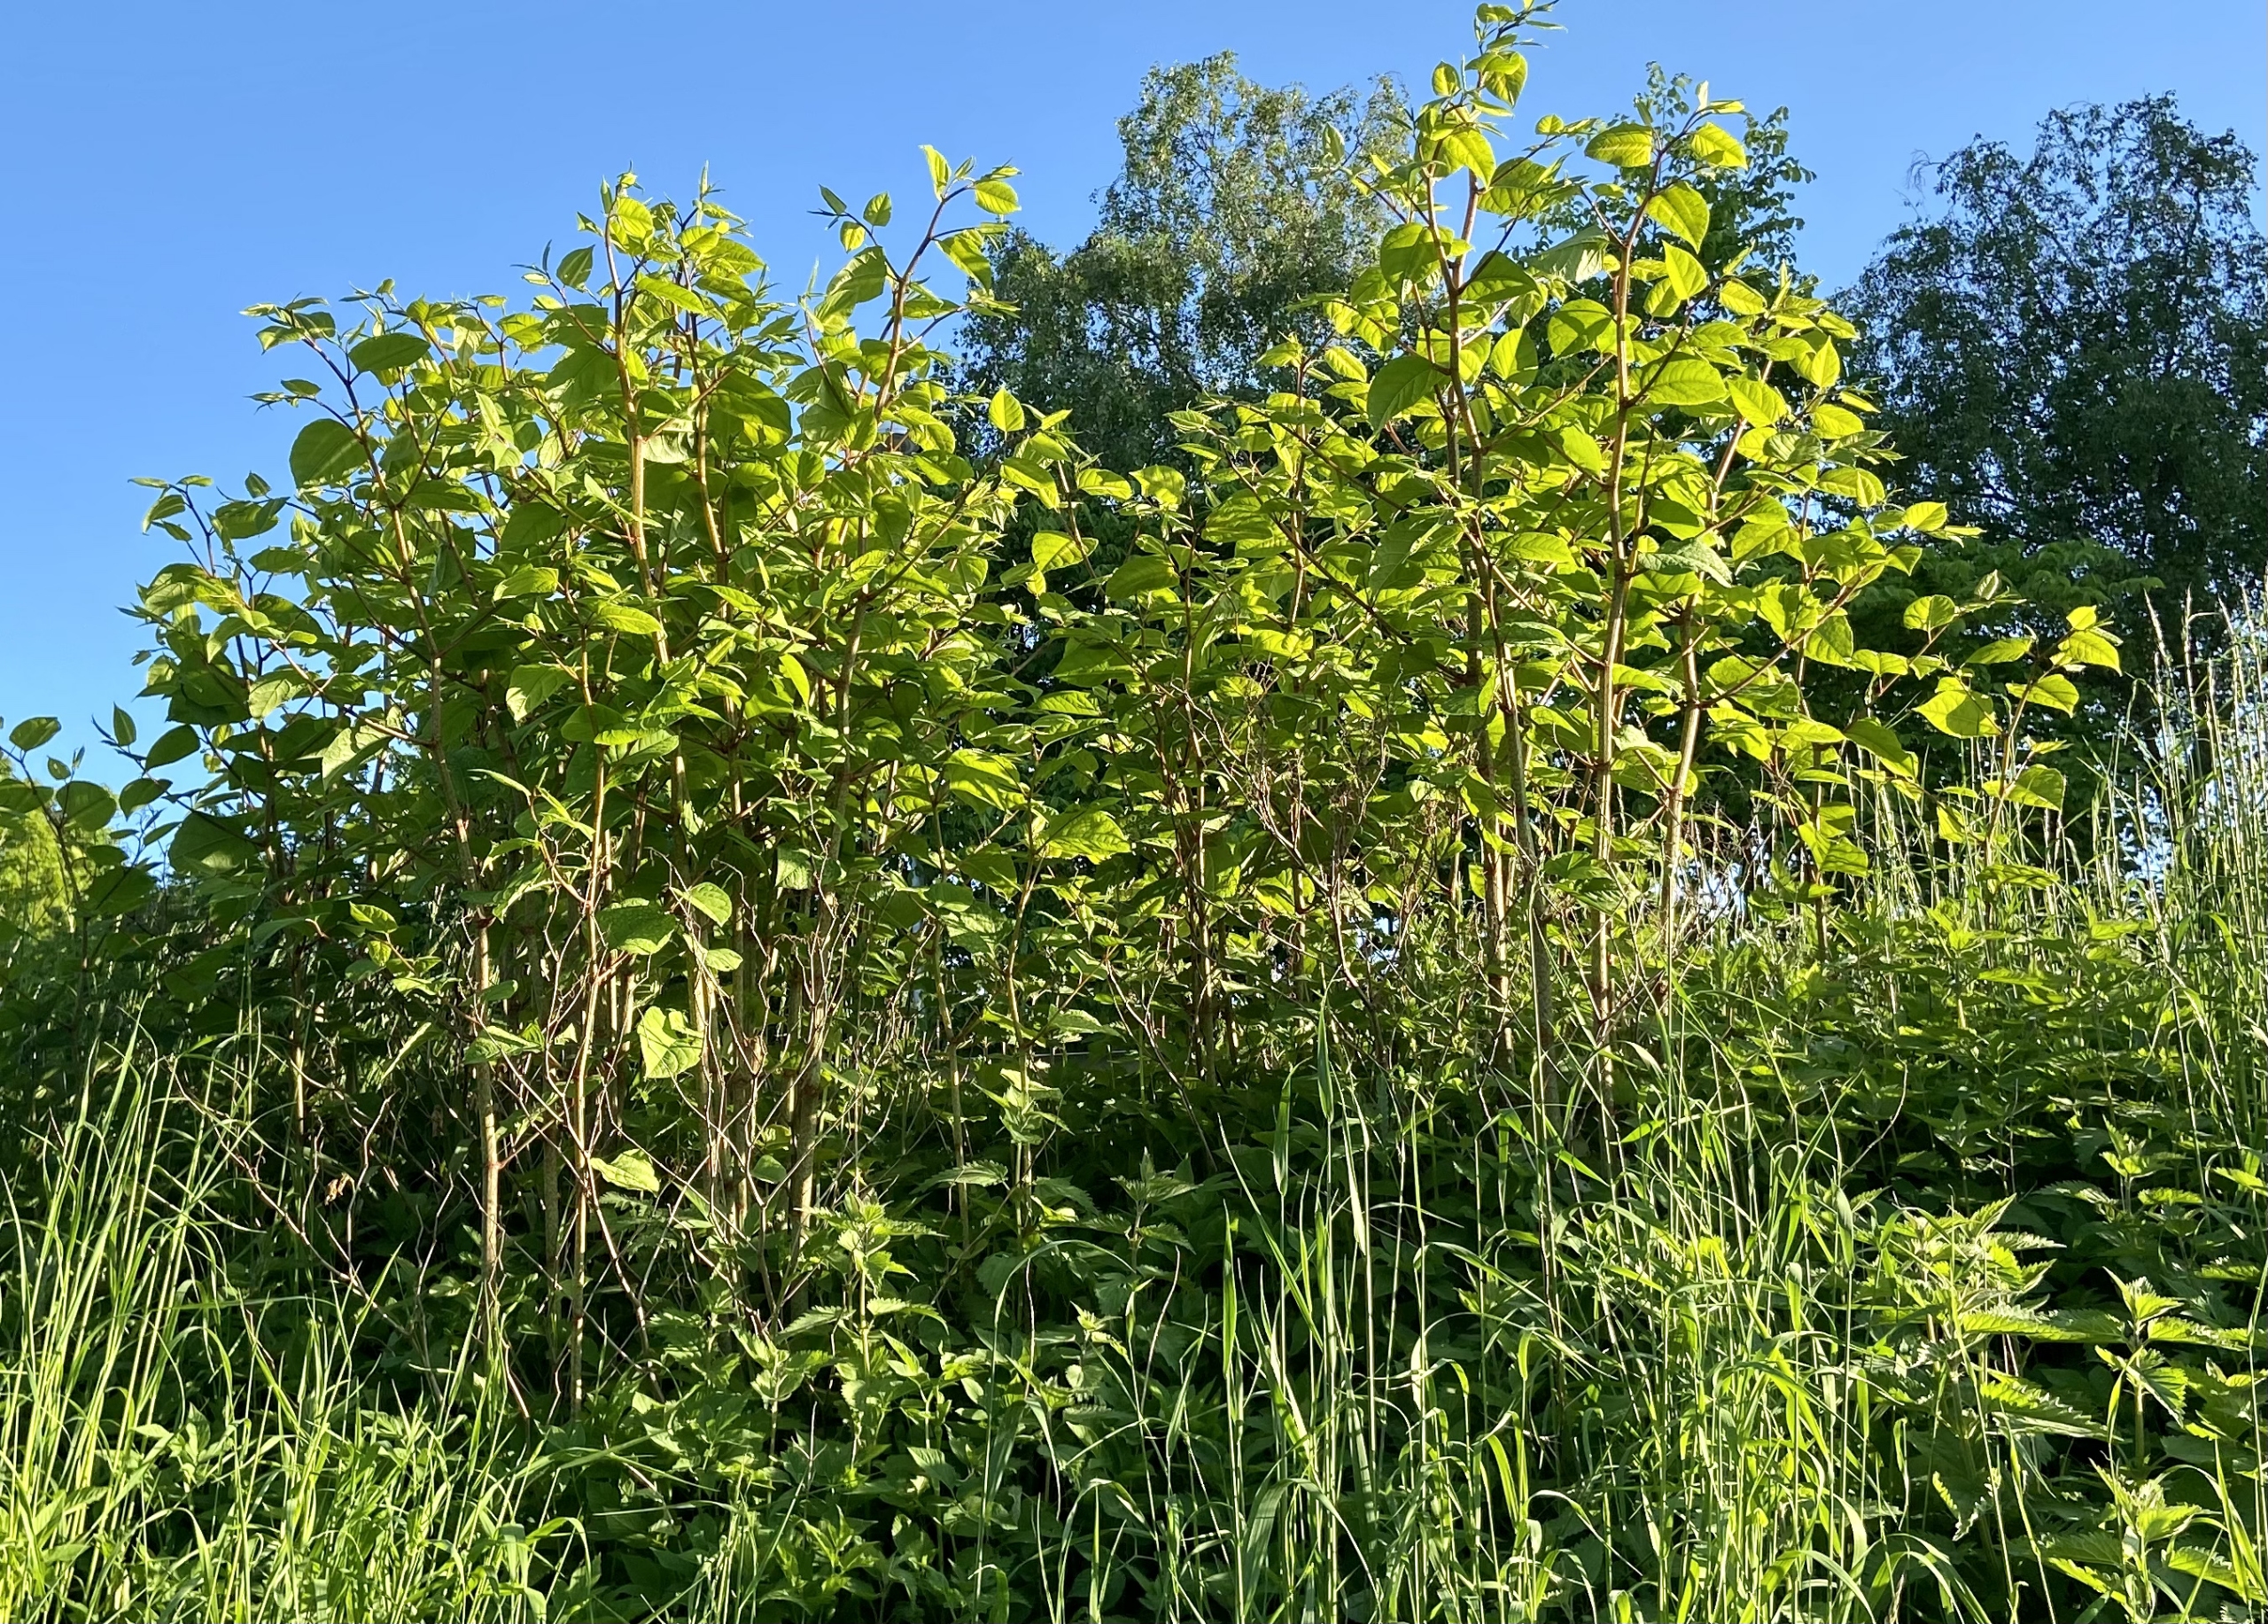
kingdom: Plantae
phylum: Tracheophyta
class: Magnoliopsida
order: Caryophyllales
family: Polygonaceae
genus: Reynoutria
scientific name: Reynoutria japonica
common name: Japan-pileurt
